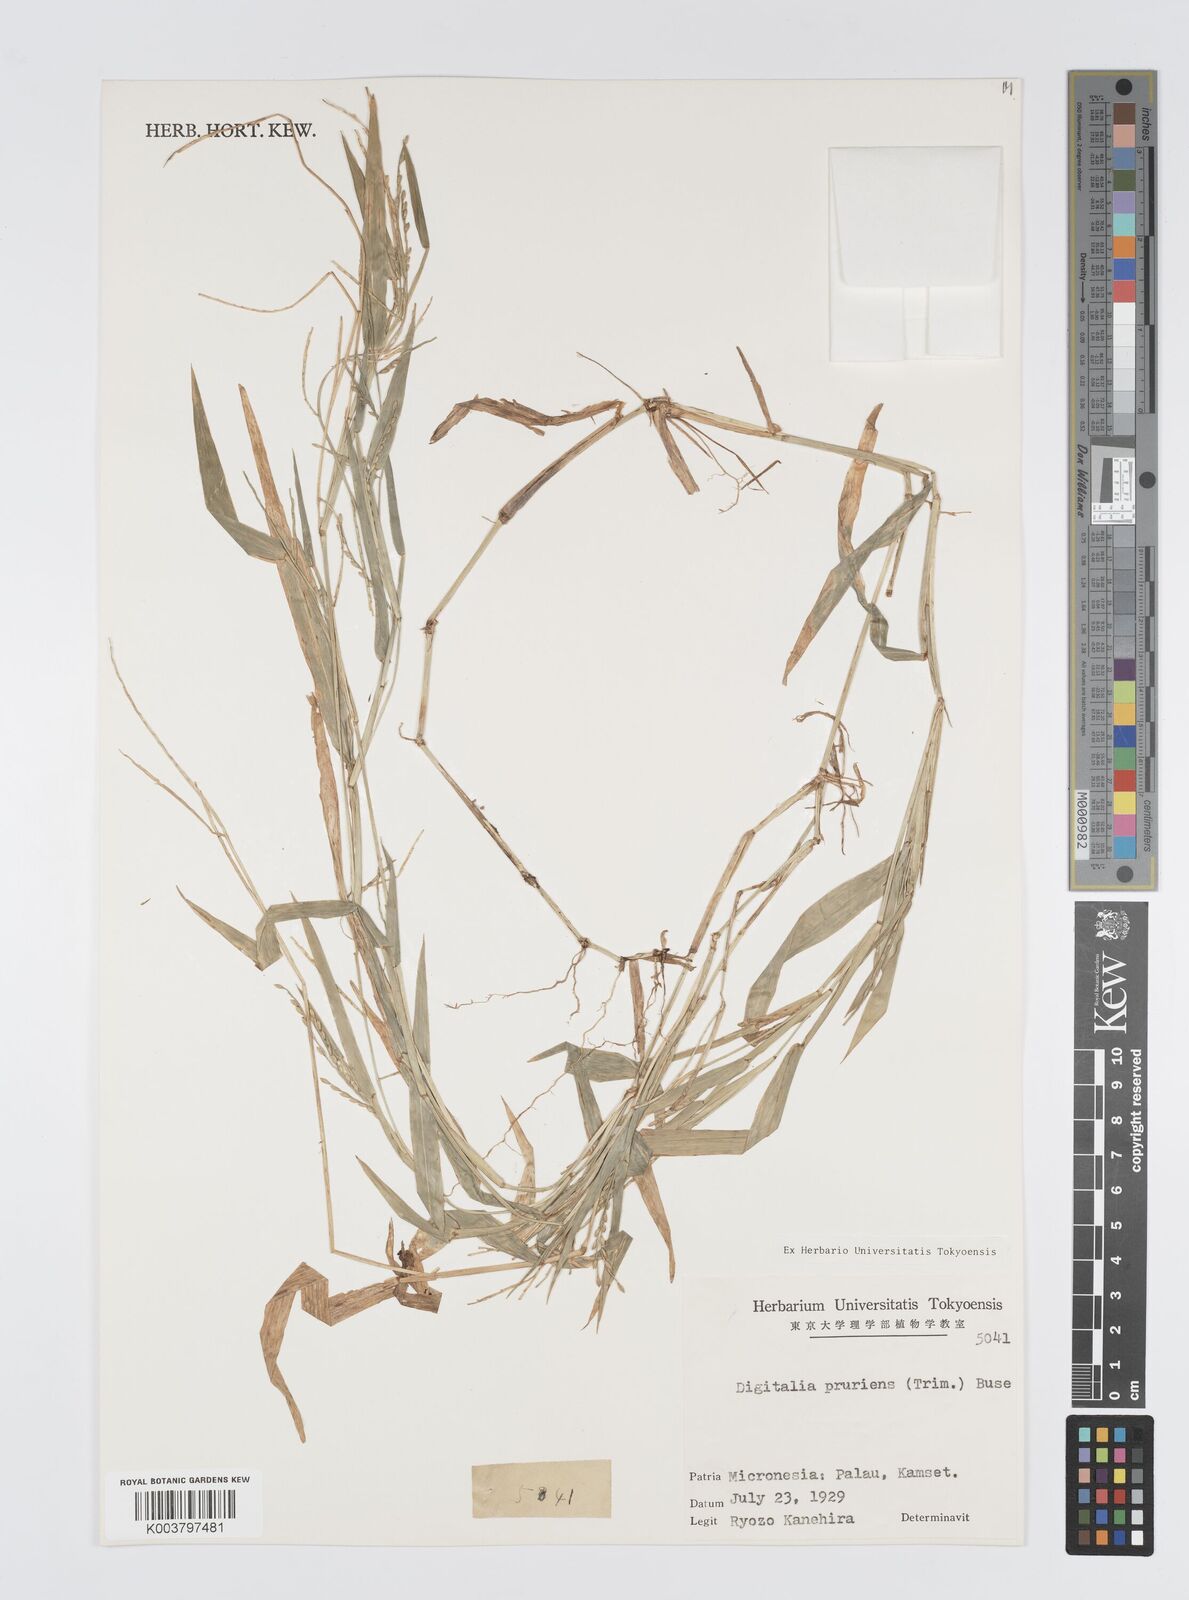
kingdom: Plantae
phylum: Tracheophyta
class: Liliopsida
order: Poales
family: Poaceae
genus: Digitaria
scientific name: Digitaria setigera
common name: East indian crabgrass
